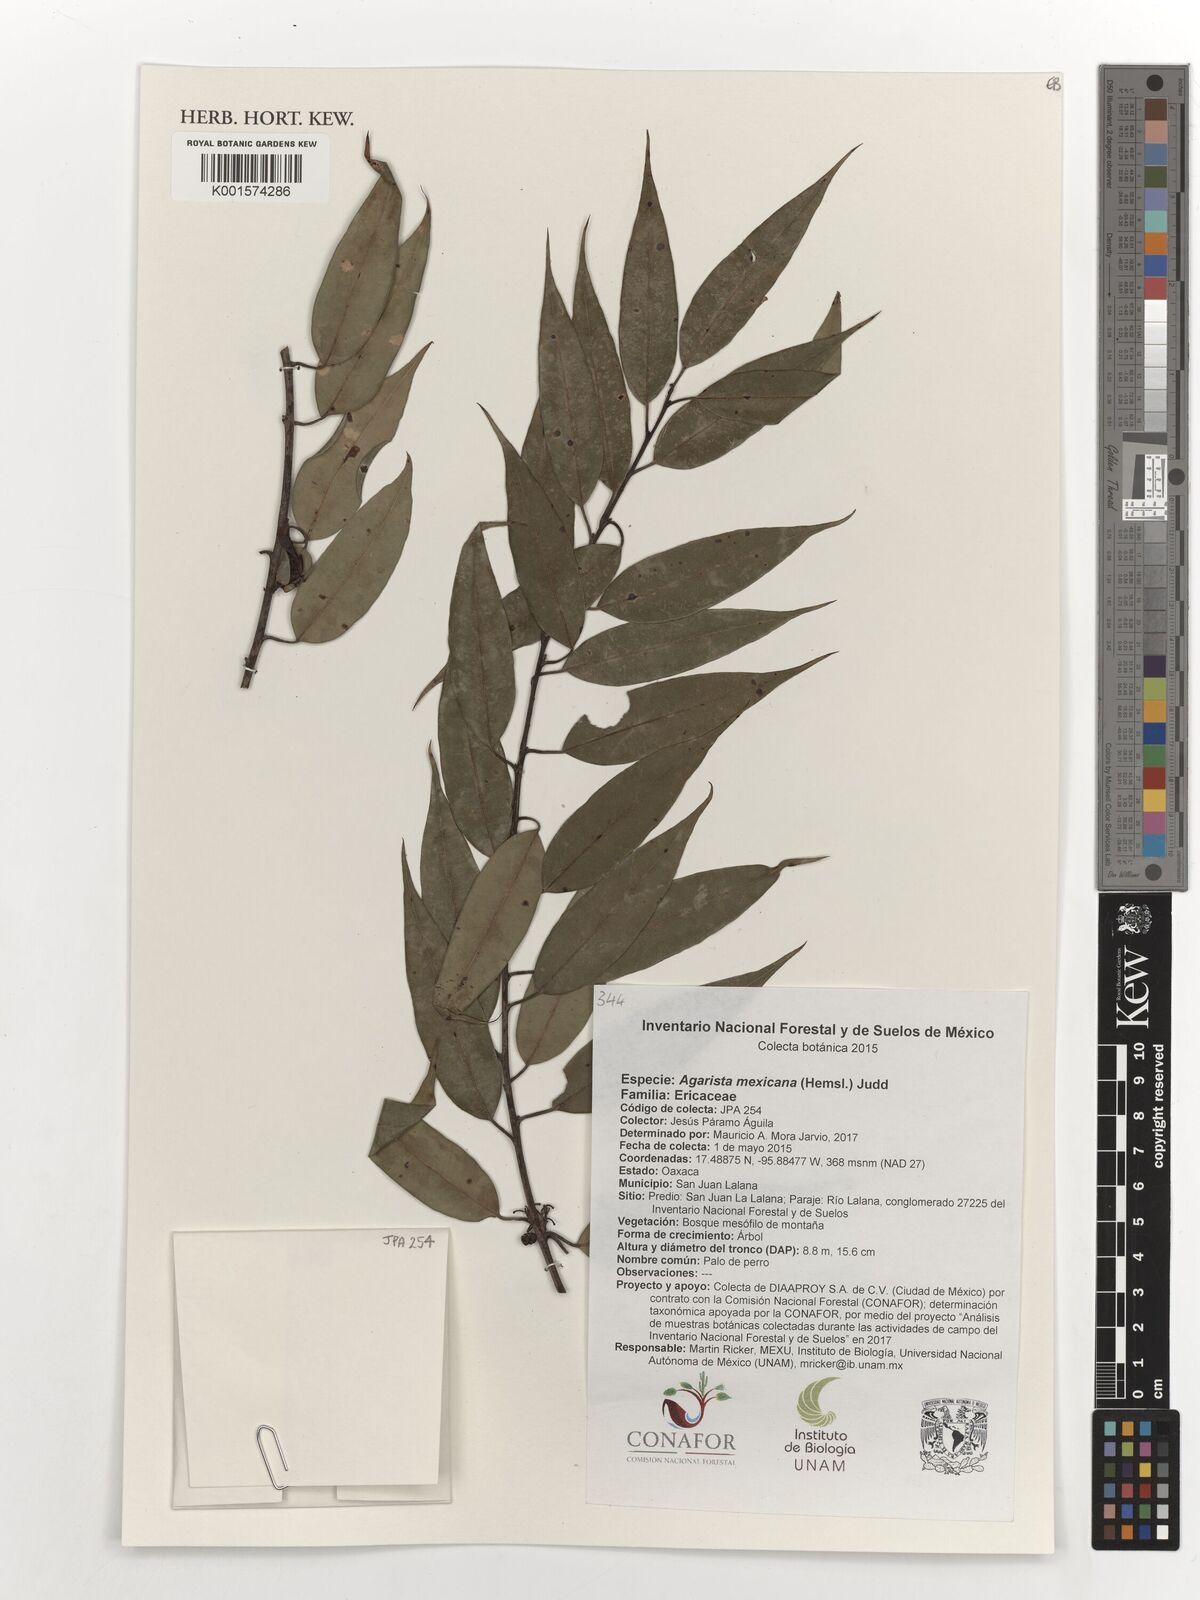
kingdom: Plantae
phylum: Tracheophyta
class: Magnoliopsida
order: Ericales
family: Ericaceae
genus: Agarista
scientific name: Agarista mexicana
